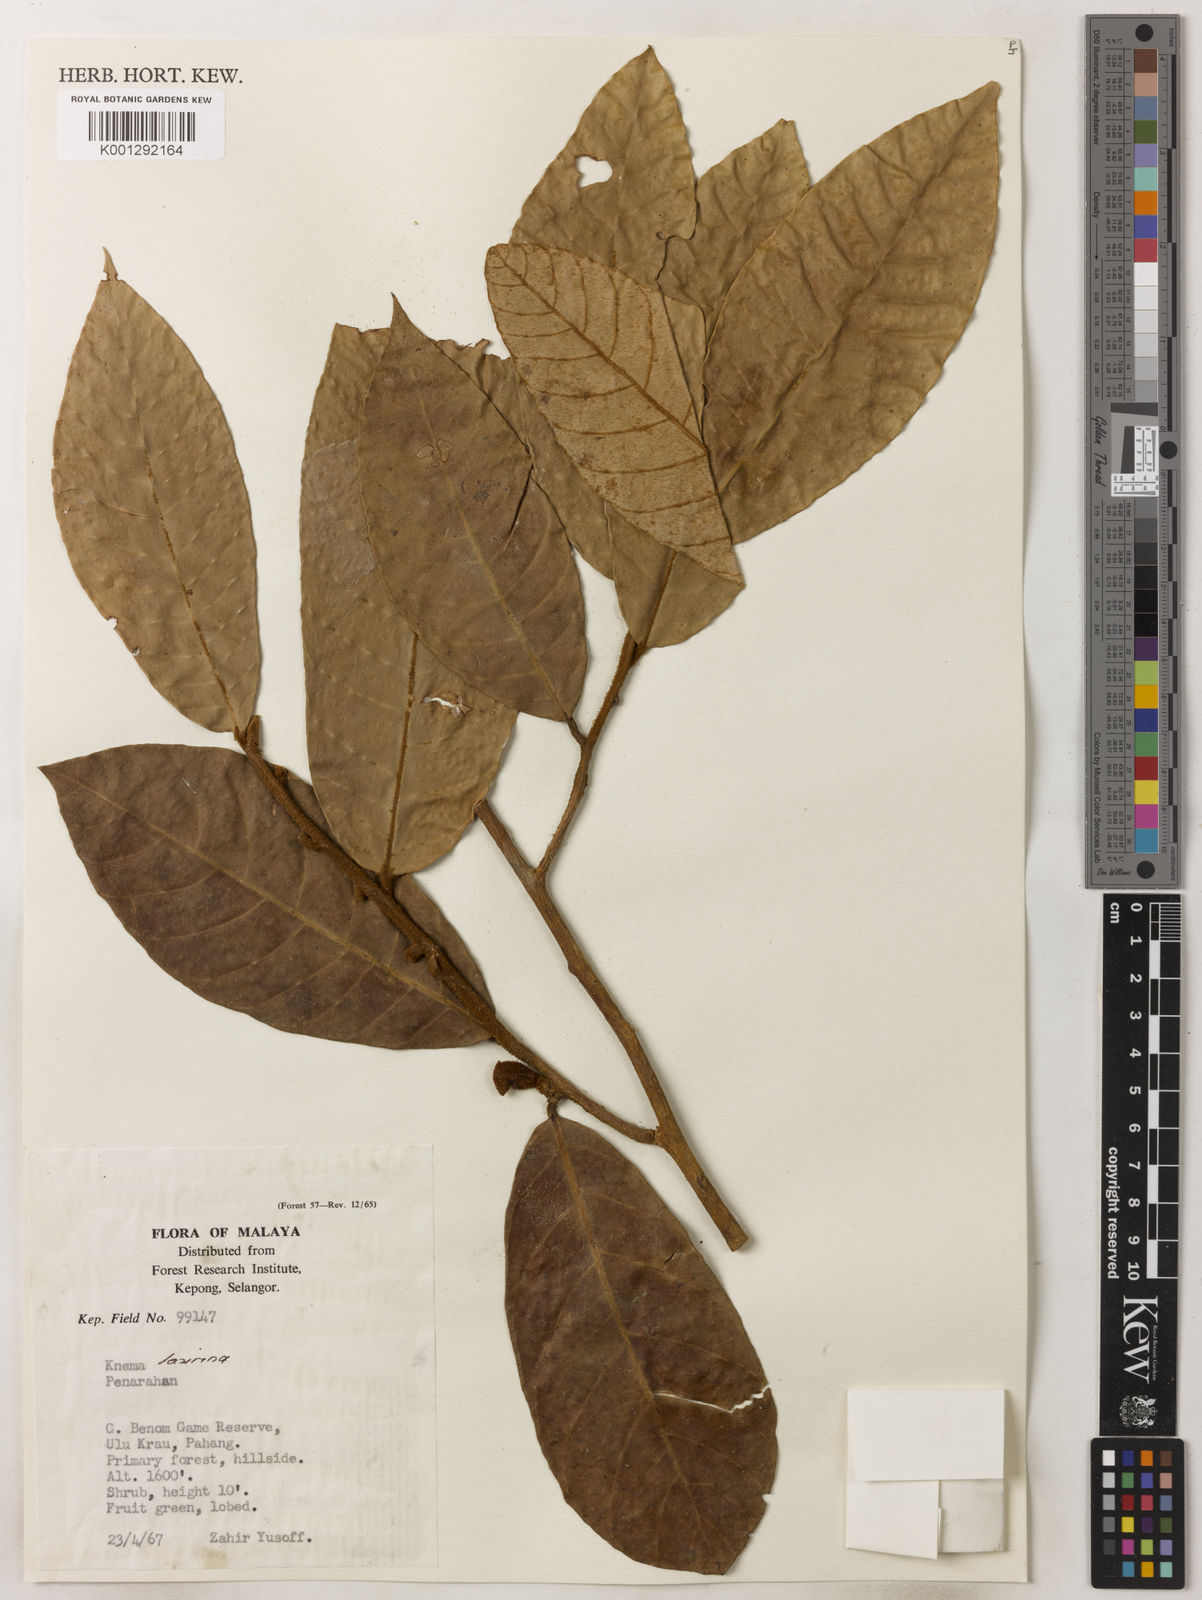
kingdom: Plantae
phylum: Tracheophyta
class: Magnoliopsida
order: Magnoliales
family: Myristicaceae
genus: Knema
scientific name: Knema laurina
